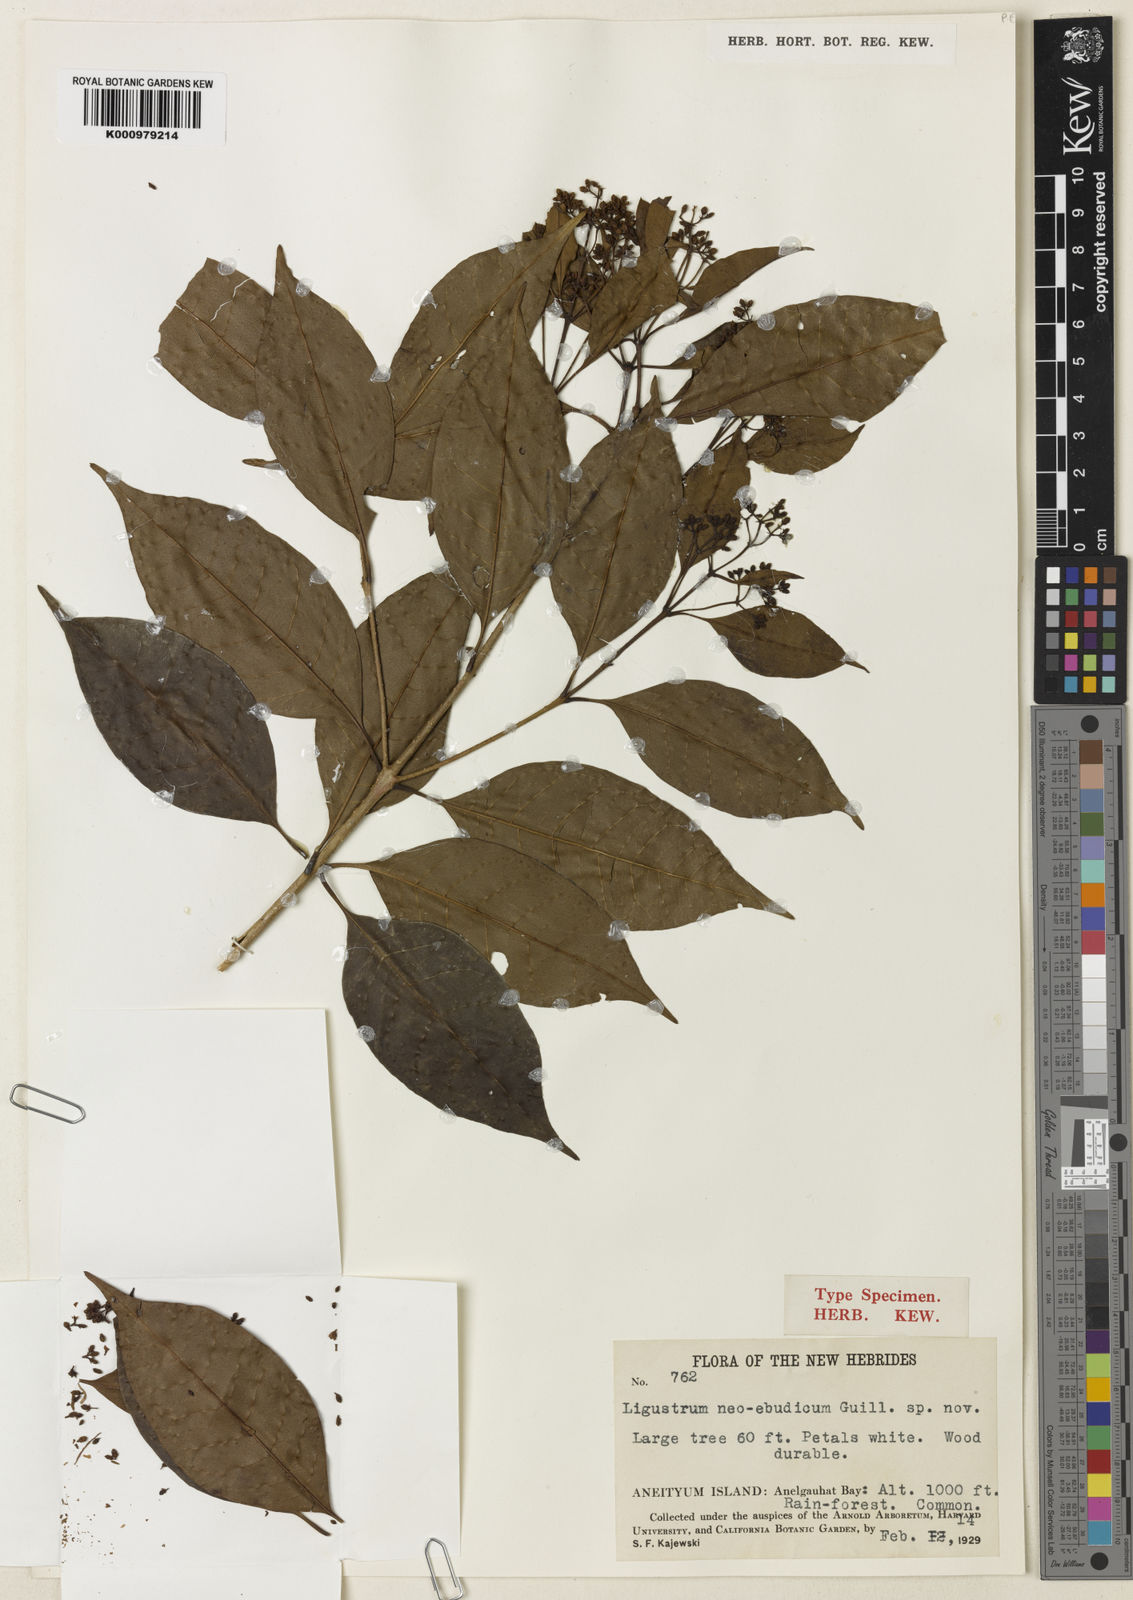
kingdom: Plantae
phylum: Tracheophyta
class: Magnoliopsida
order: Lamiales
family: Oleaceae
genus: Chionanthus
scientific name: Chionanthus ramiflorus
